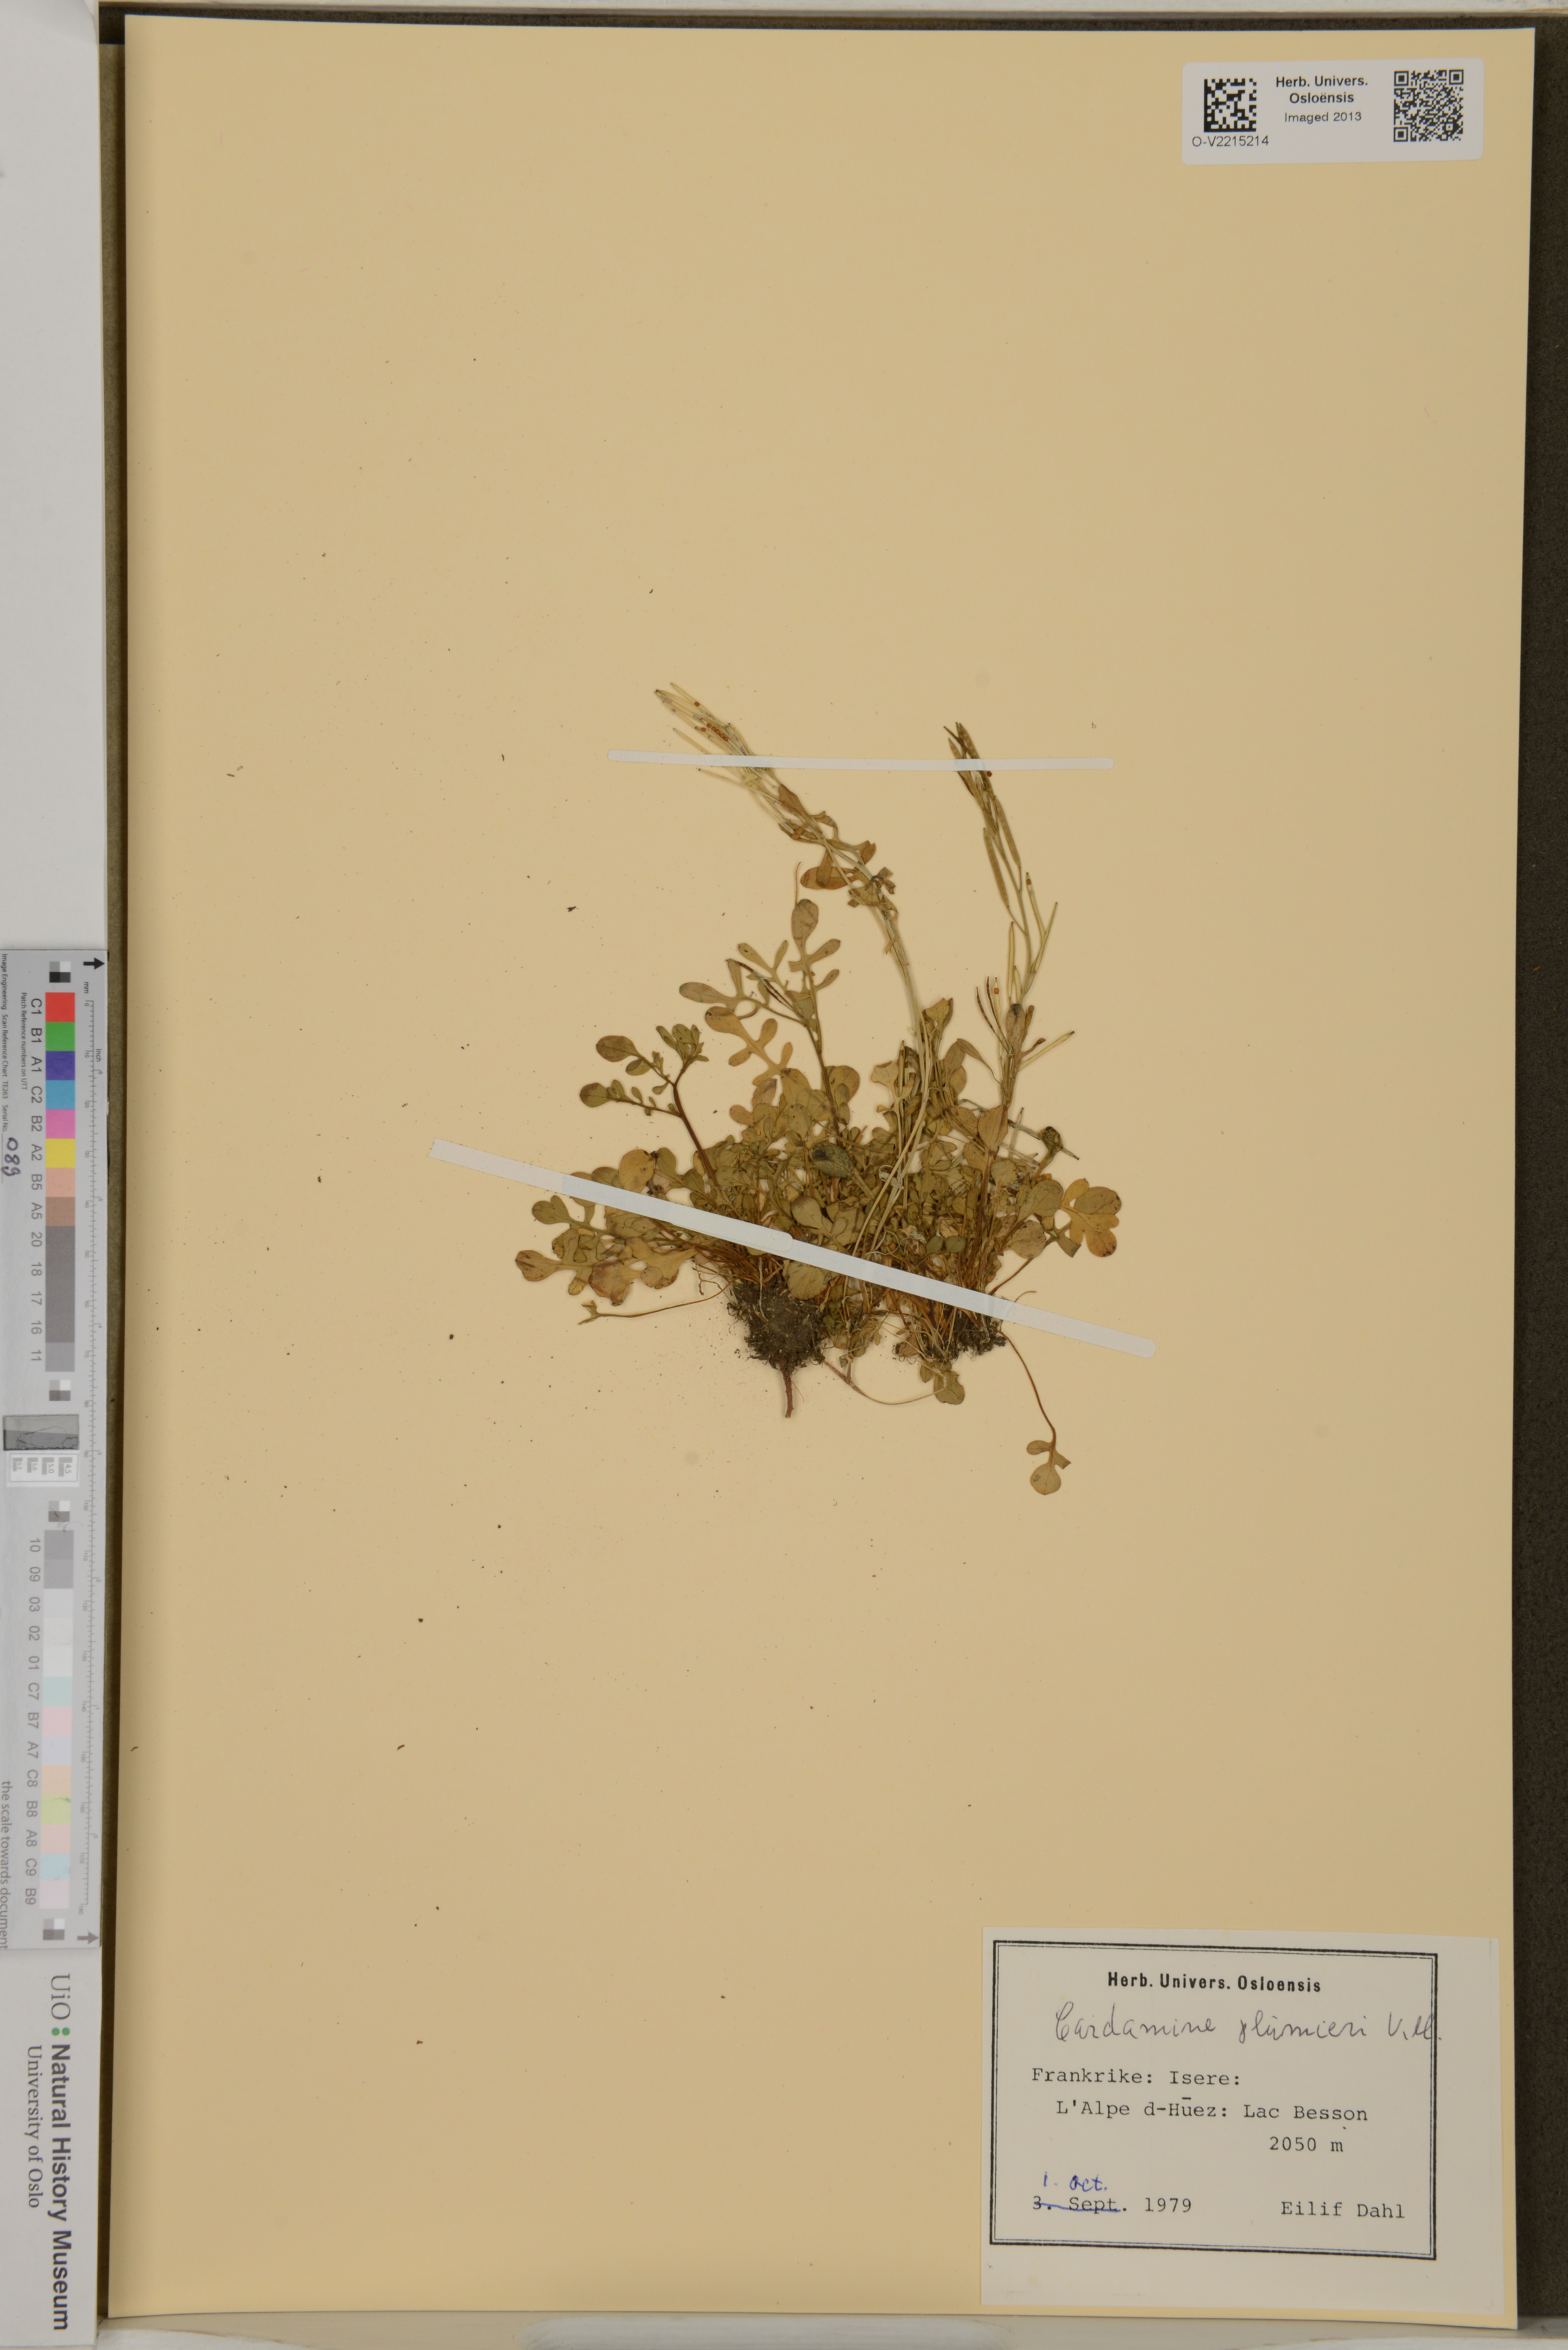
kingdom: Plantae
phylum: Tracheophyta
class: Magnoliopsida
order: Brassicales
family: Brassicaceae
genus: Cardamine
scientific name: Cardamine plumierii
